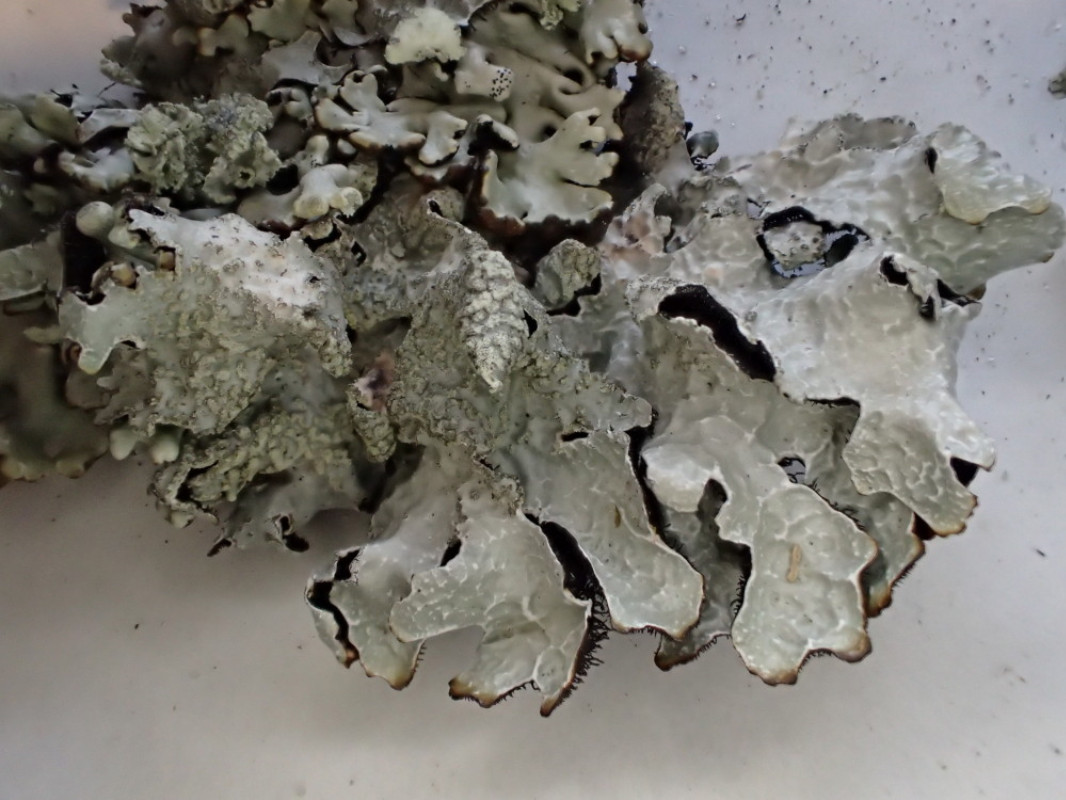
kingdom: Fungi
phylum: Ascomycota
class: Lecanoromycetes
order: Lecanorales
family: Parmeliaceae
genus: Parmelia
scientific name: Parmelia sulcata
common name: rynket skållav
